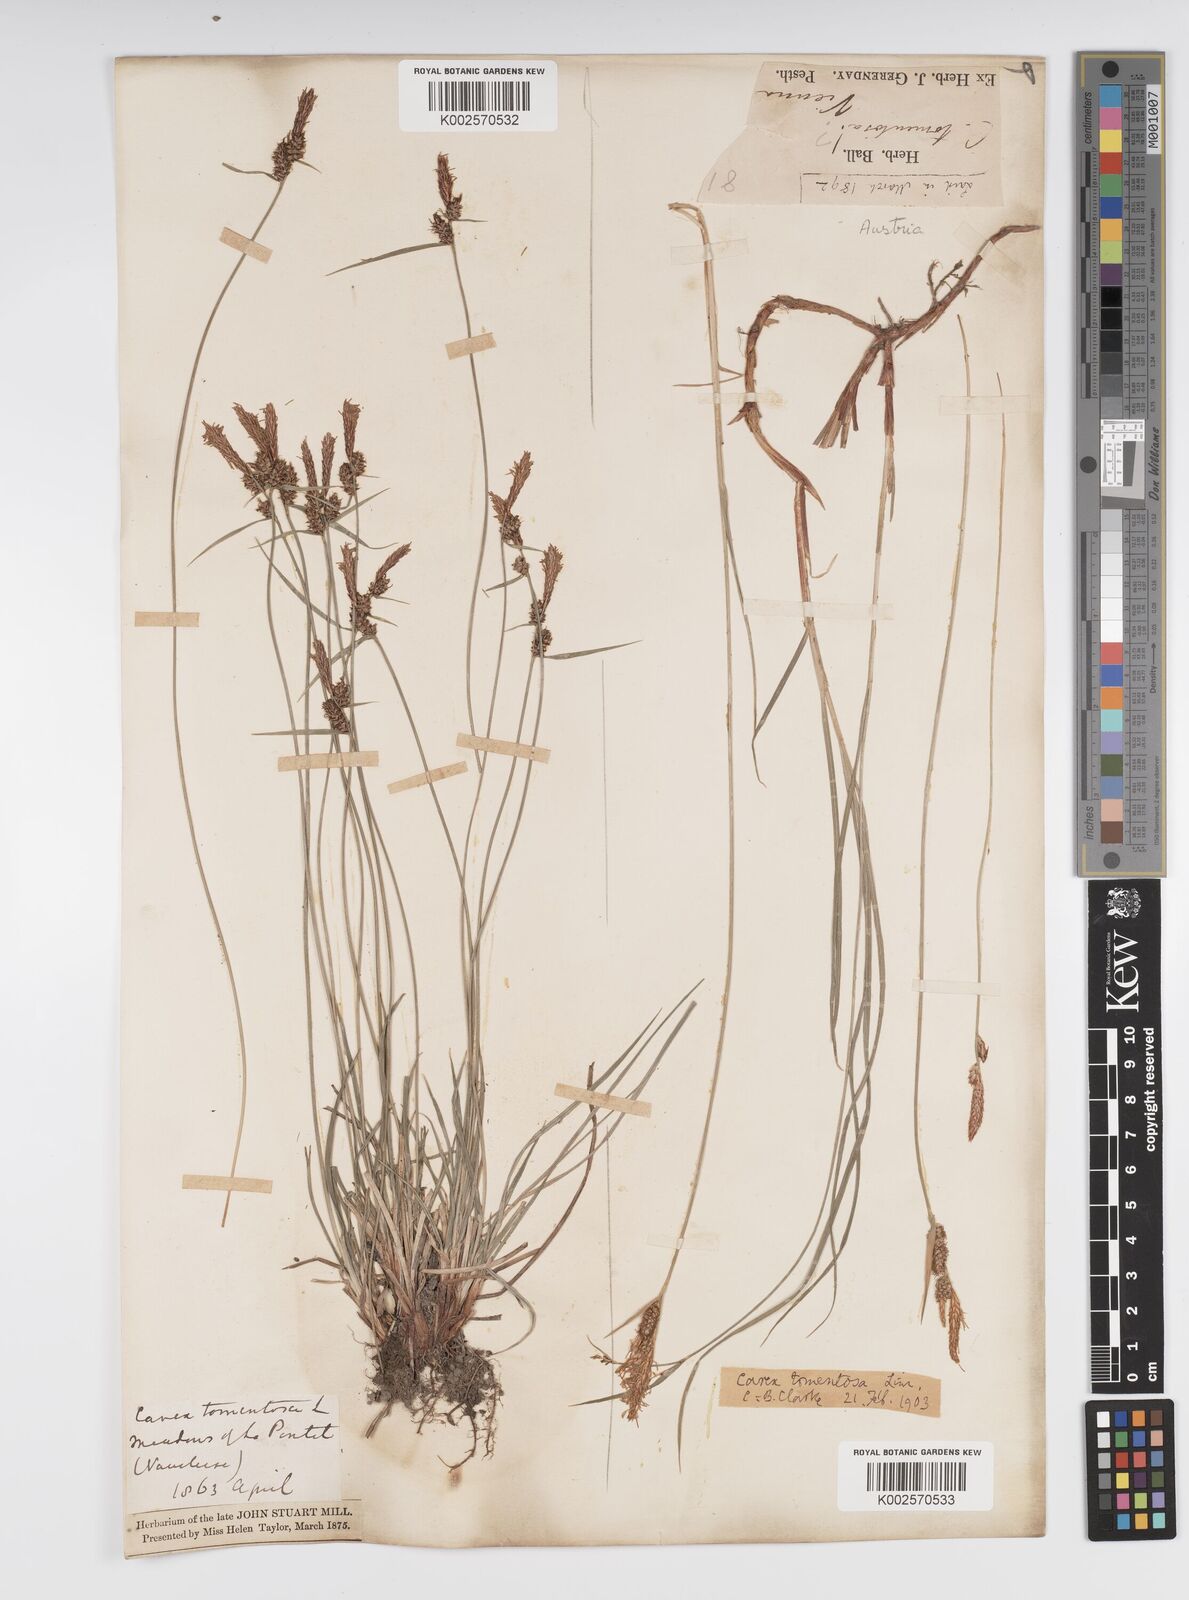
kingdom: Plantae
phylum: Tracheophyta
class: Liliopsida
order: Poales
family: Cyperaceae
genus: Carex
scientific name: Carex montana
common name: Soft-leaved sedge
